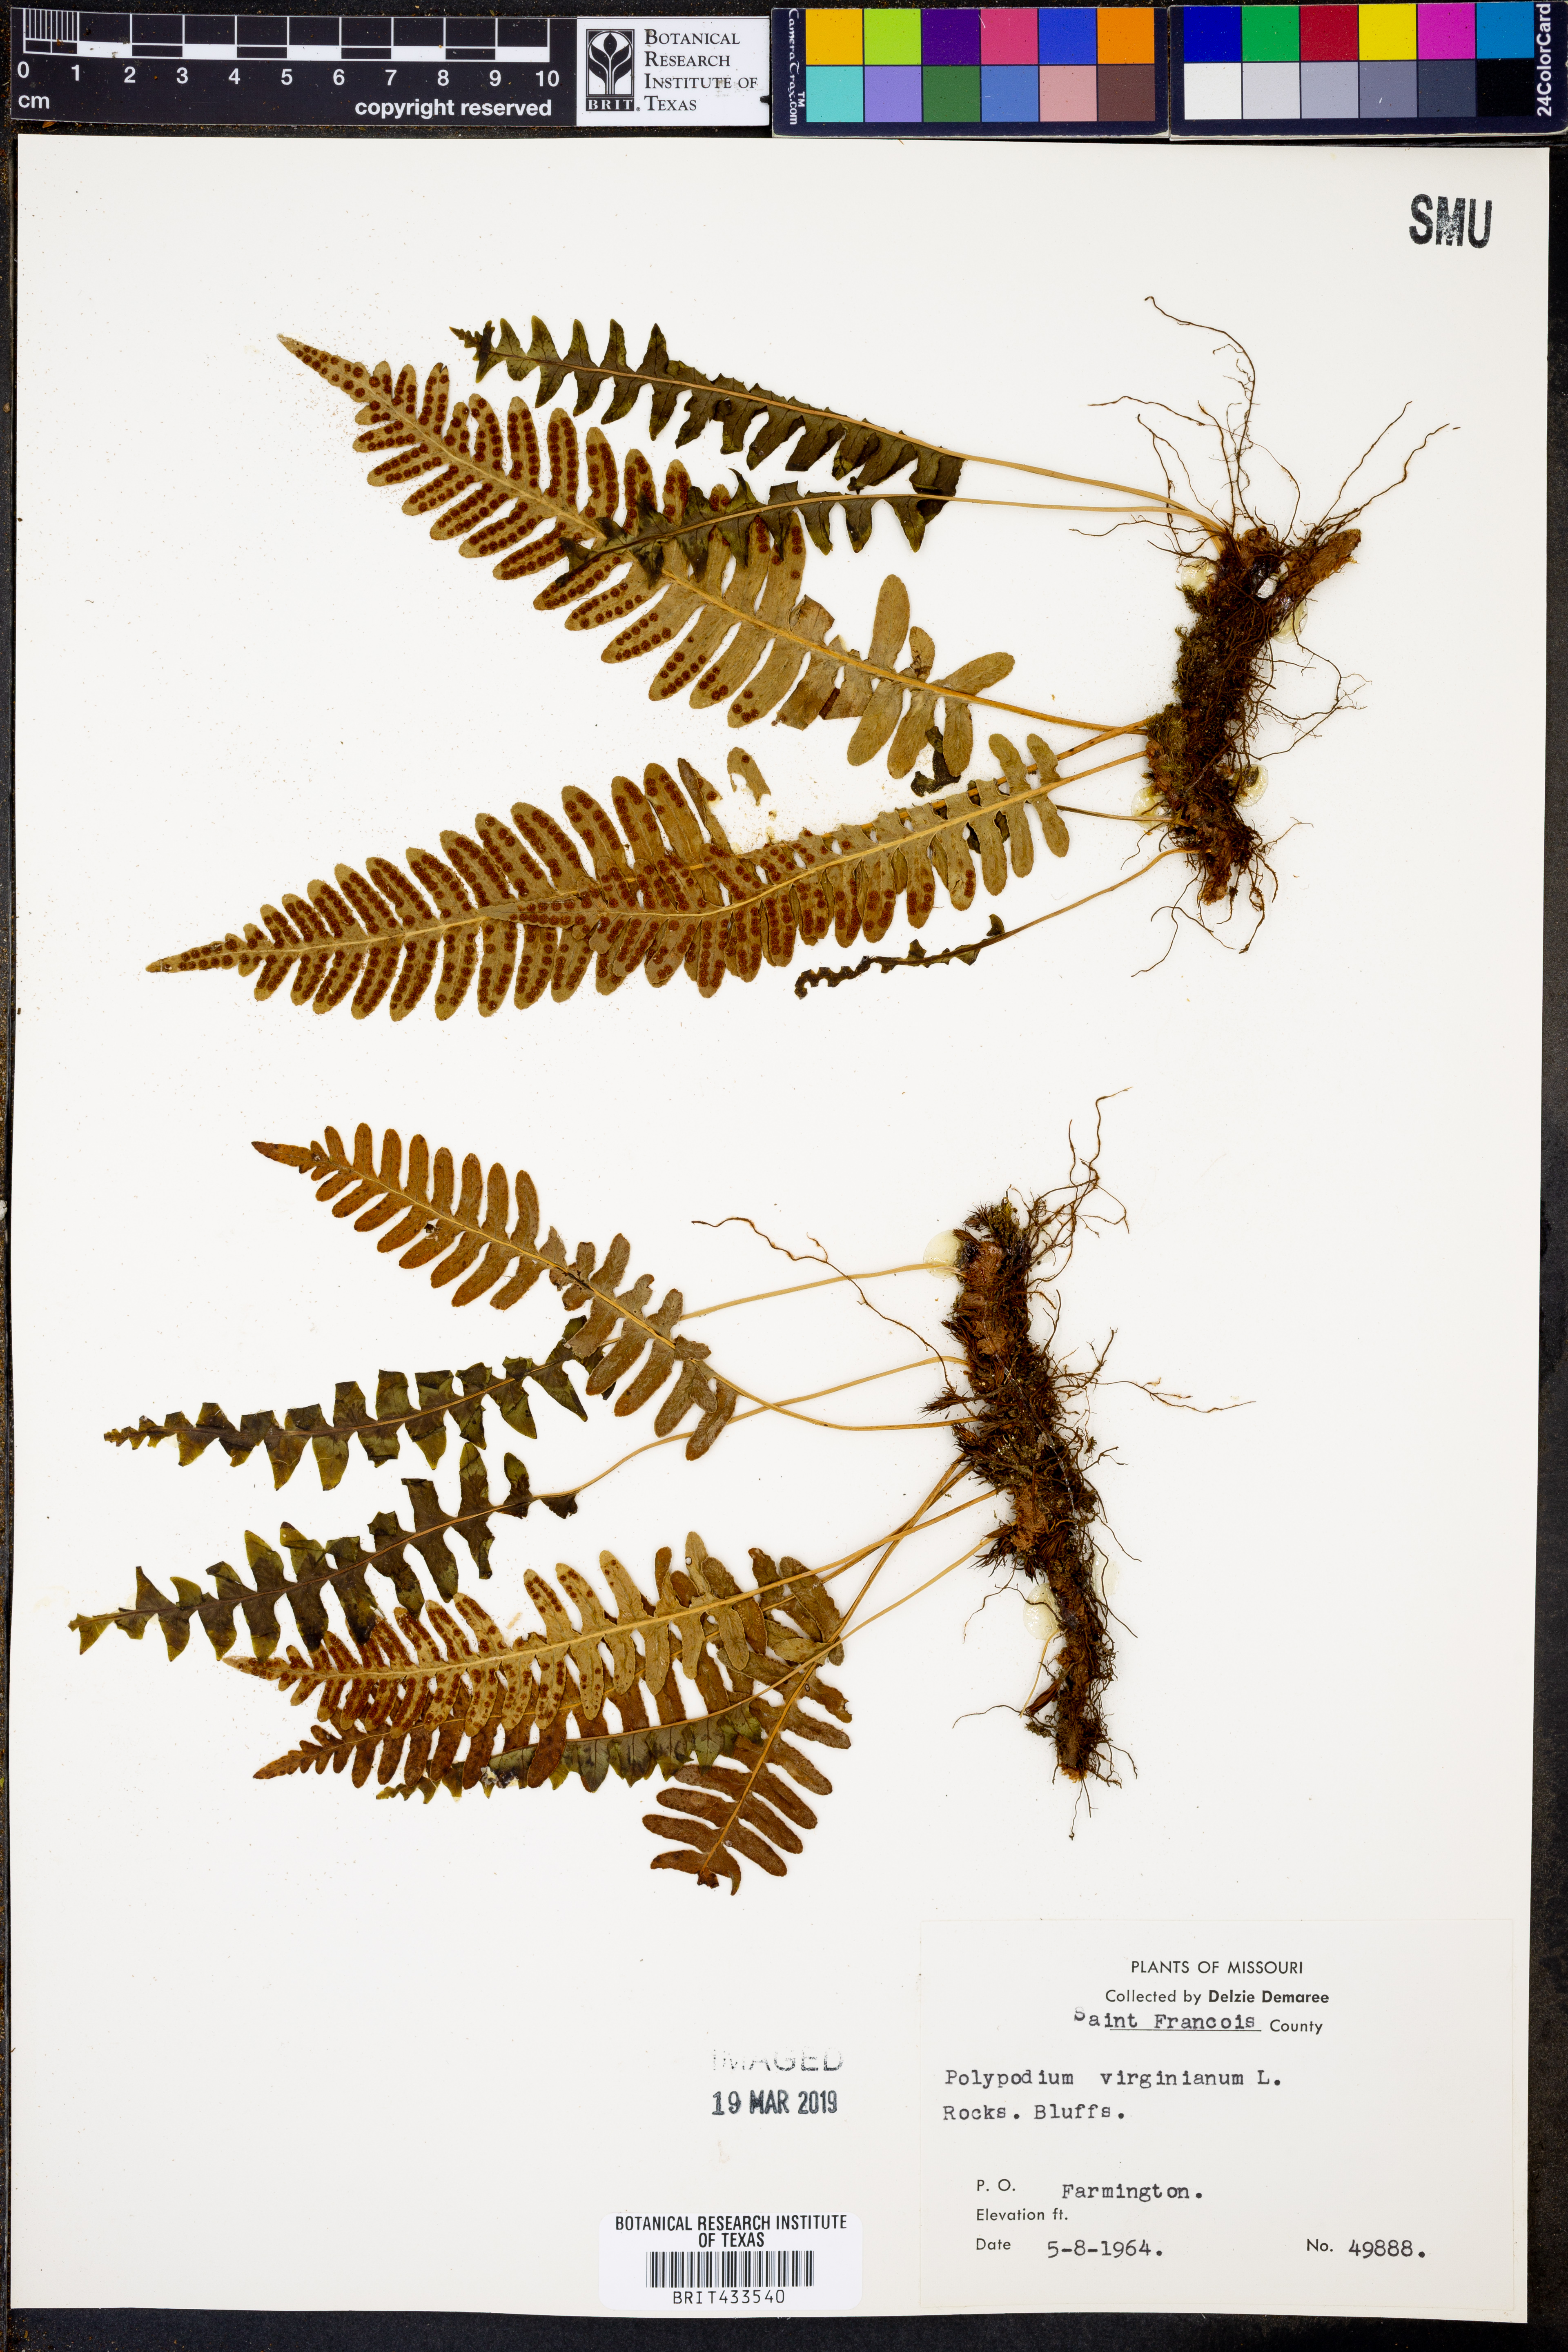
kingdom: Plantae
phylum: Tracheophyta
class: Polypodiopsida
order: Polypodiales
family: Polypodiaceae
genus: Polypodium
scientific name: Polypodium virginianum
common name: American wall fern
